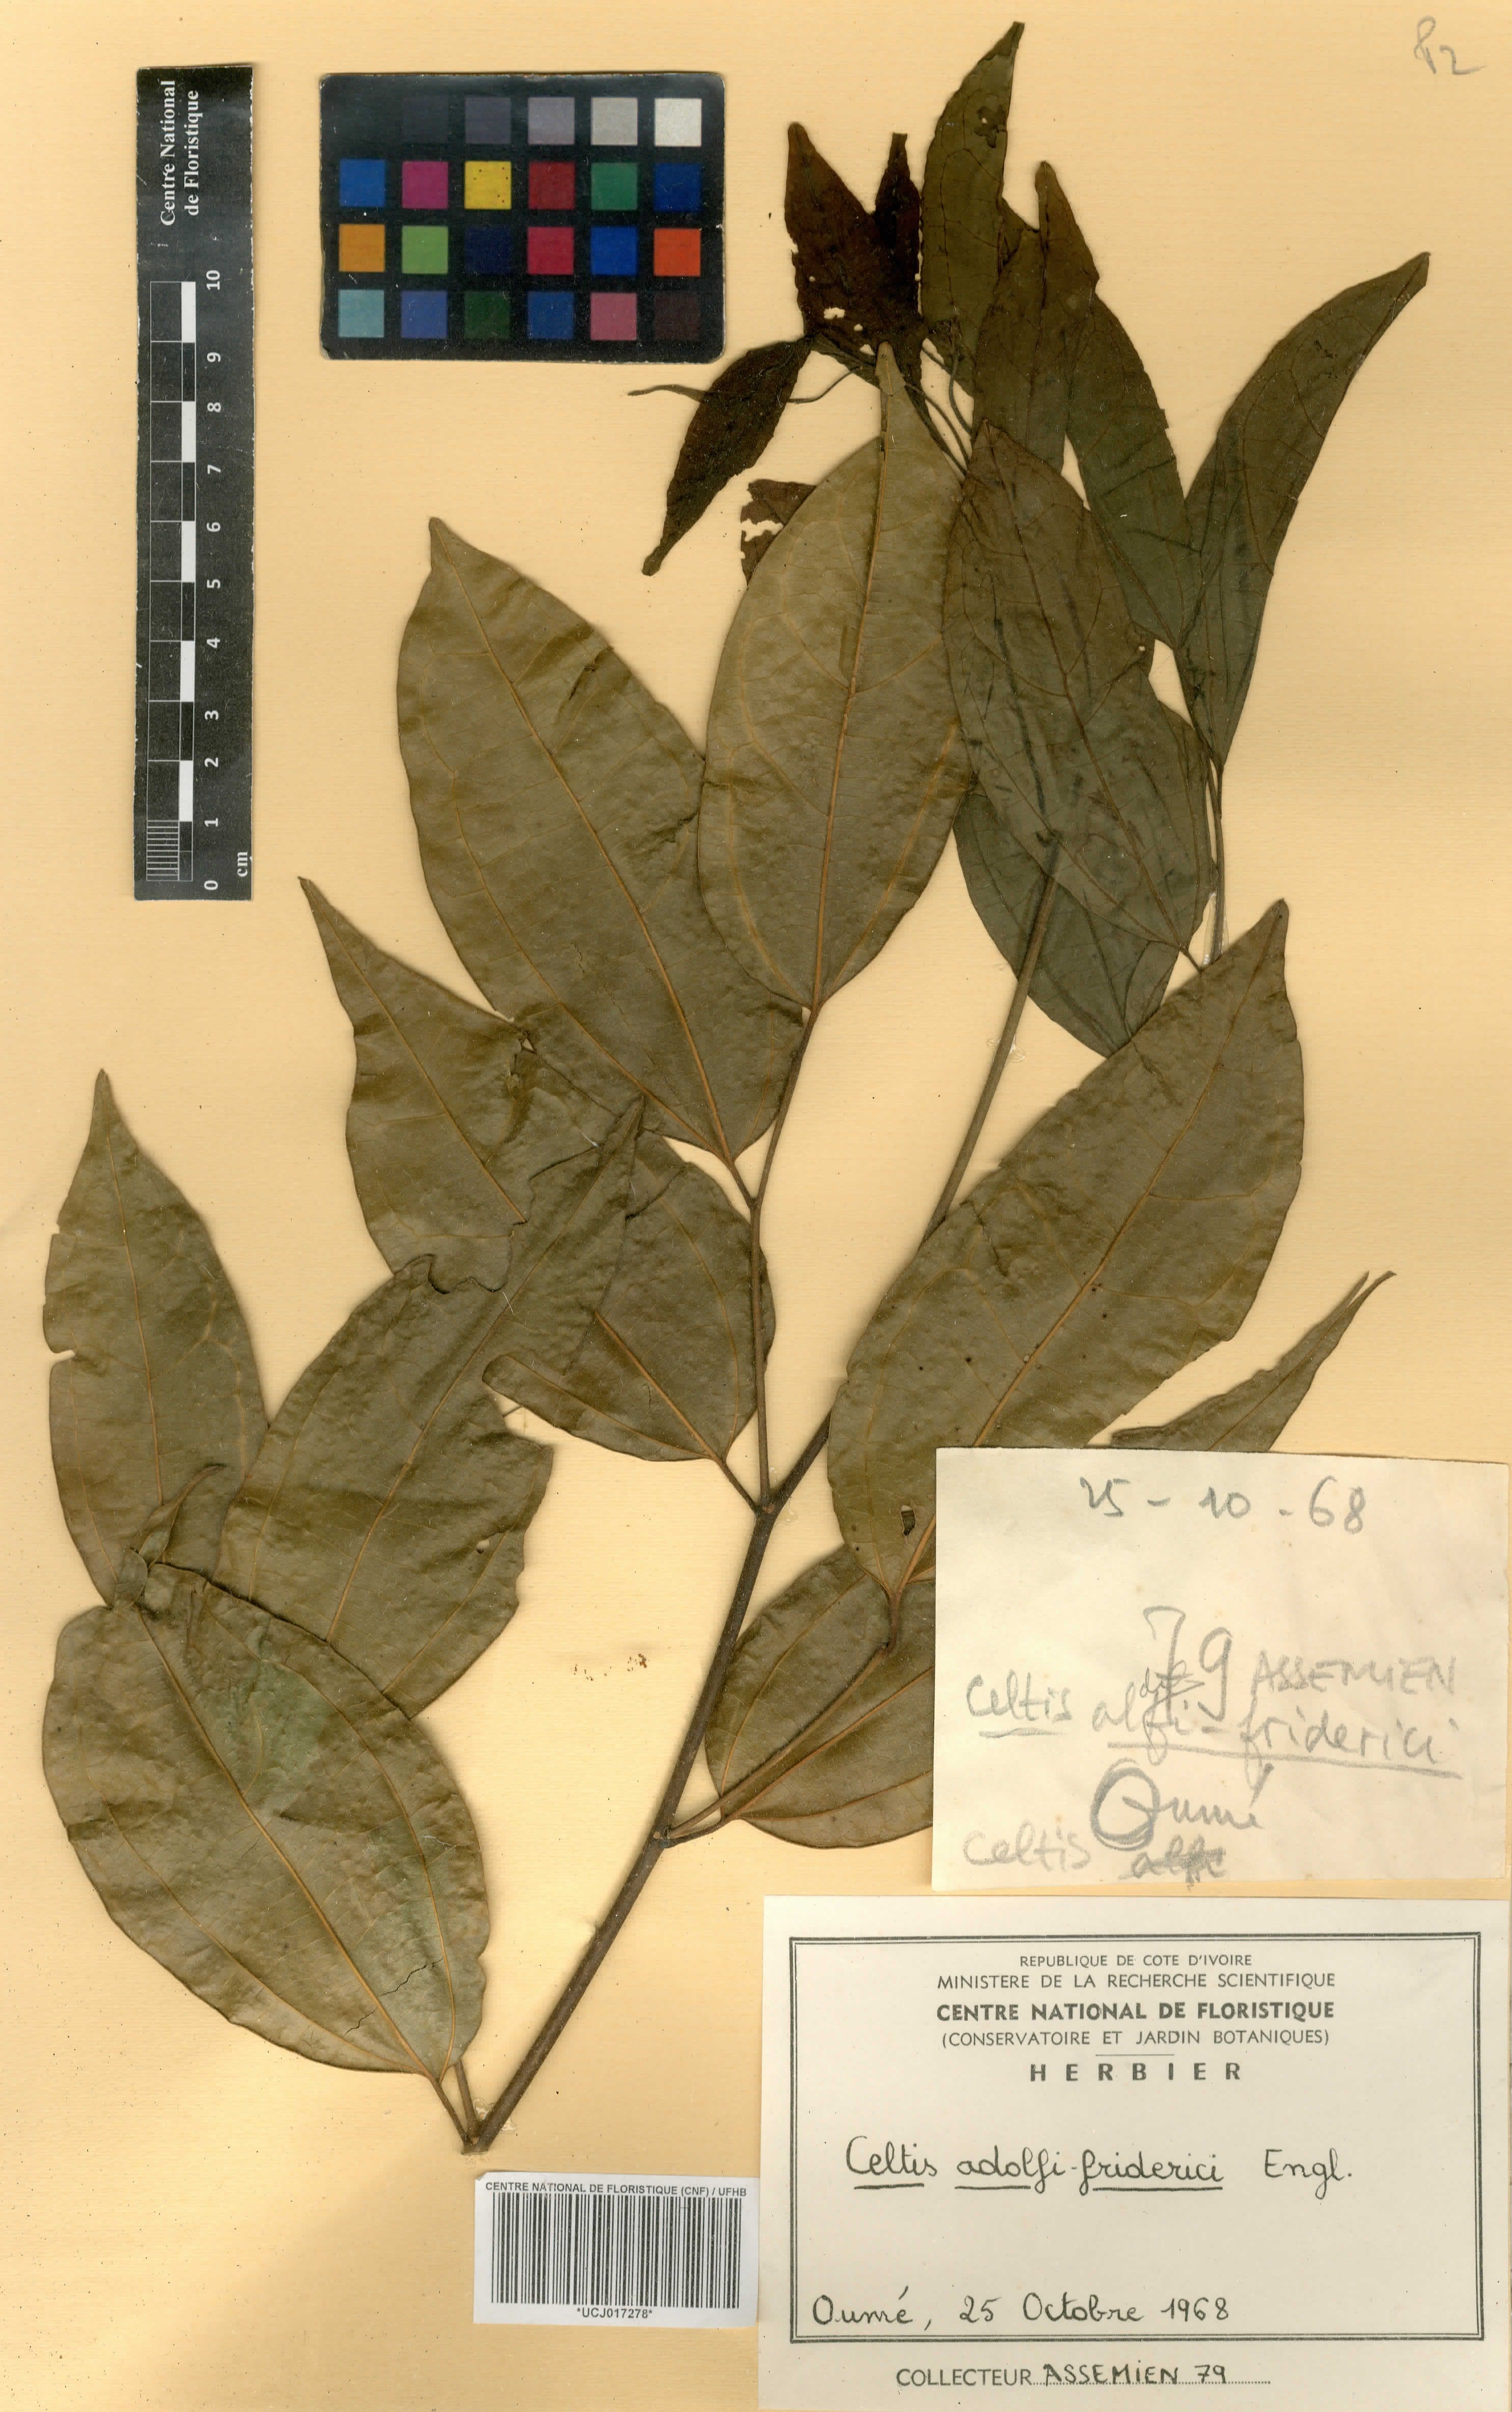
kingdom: Plantae
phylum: Tracheophyta
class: Magnoliopsida
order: Rosales
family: Cannabaceae
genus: Celtis
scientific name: Celtis adolfi-friderici
